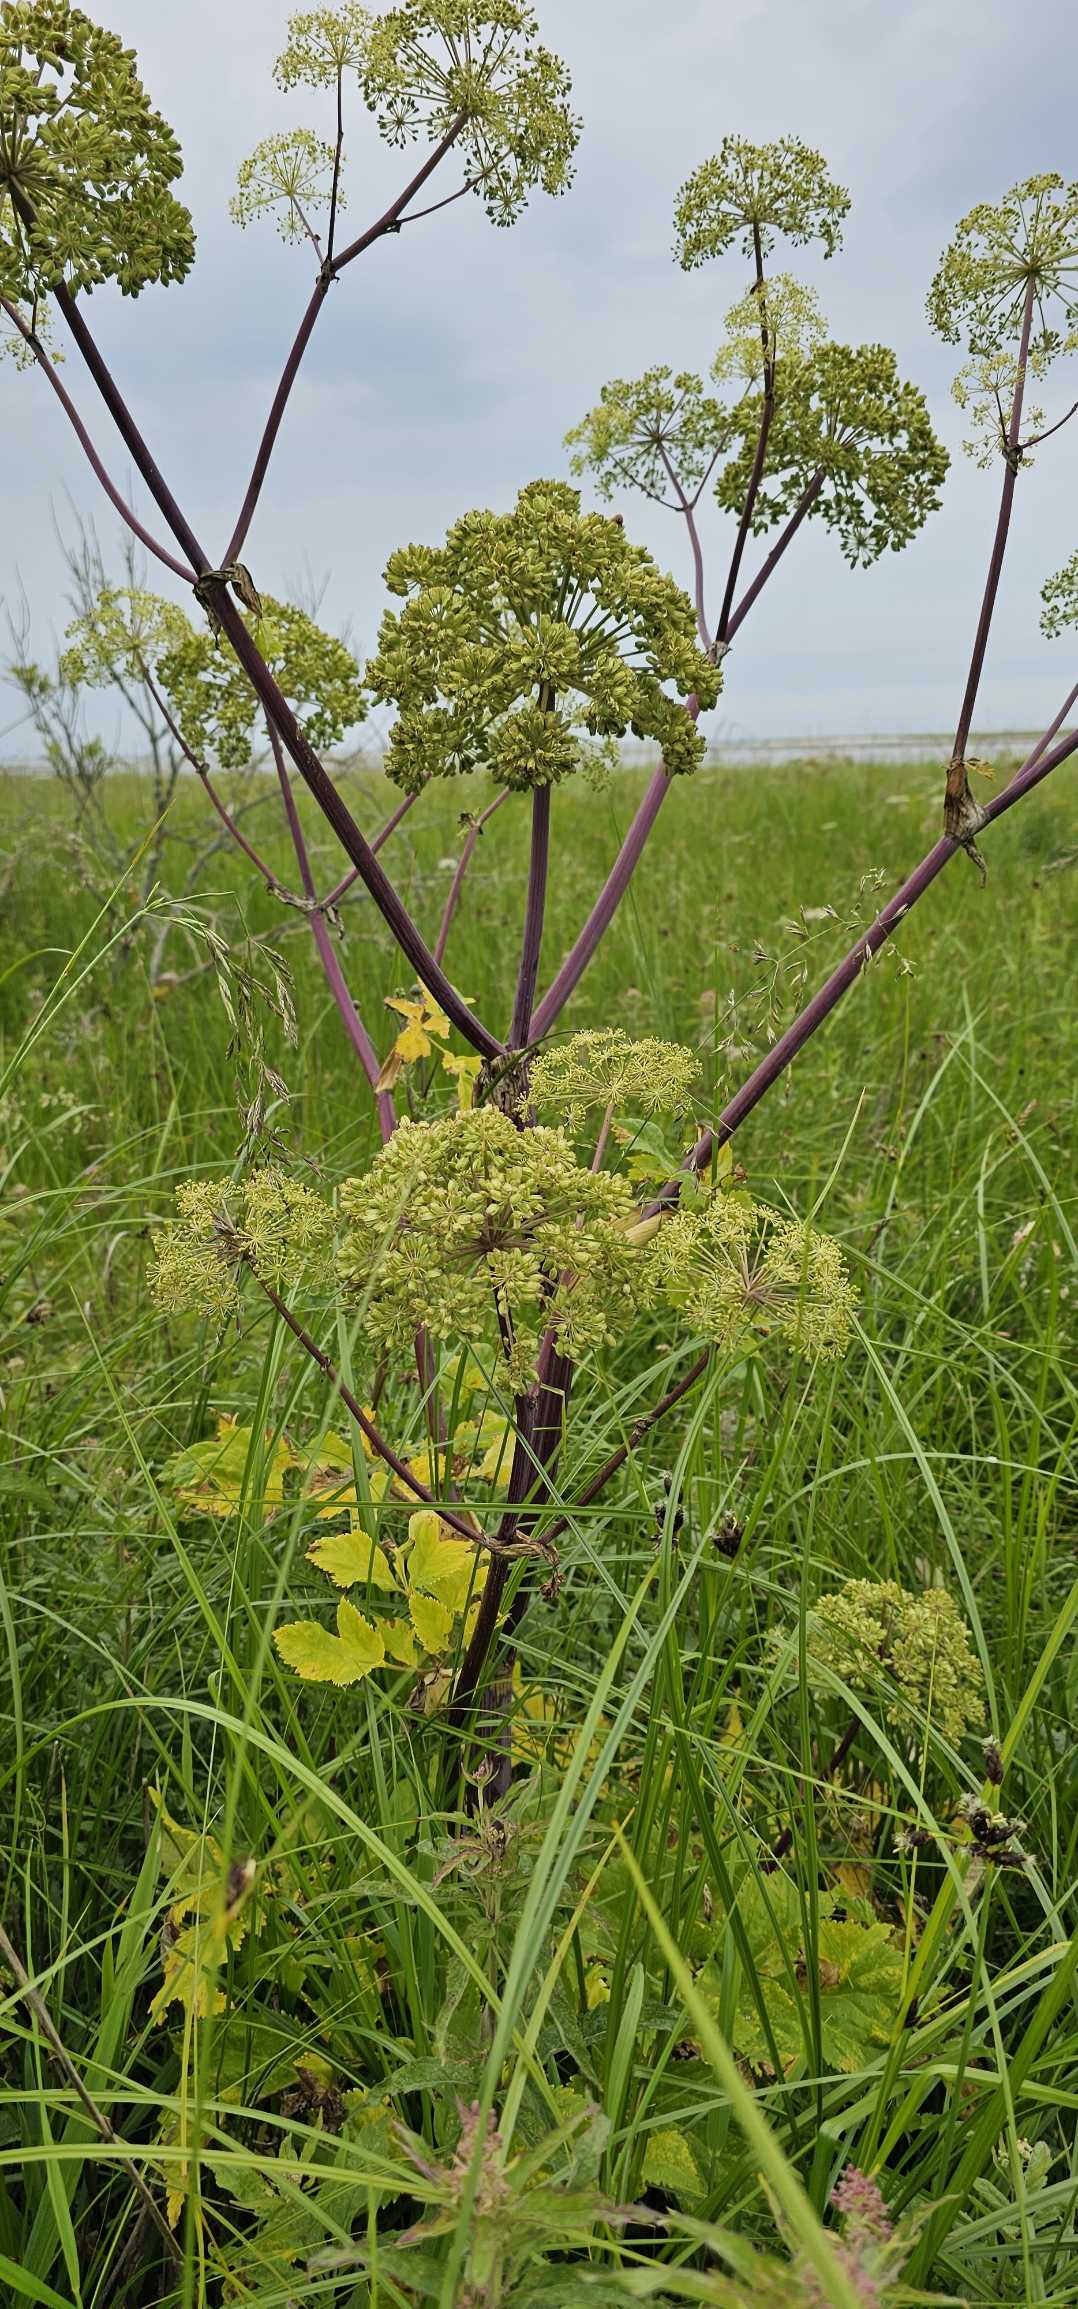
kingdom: Plantae
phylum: Tracheophyta
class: Magnoliopsida
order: Apiales
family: Apiaceae
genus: Angelica
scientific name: Angelica archangelica
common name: Kvan
